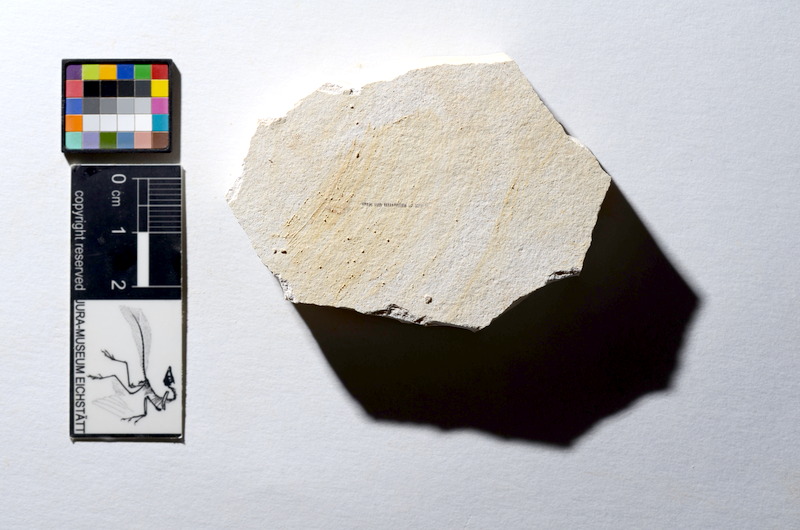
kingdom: Animalia
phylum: Chordata
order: Salmoniformes
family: Orthogonikleithridae
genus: Orthogonikleithrus
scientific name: Orthogonikleithrus hoelli
